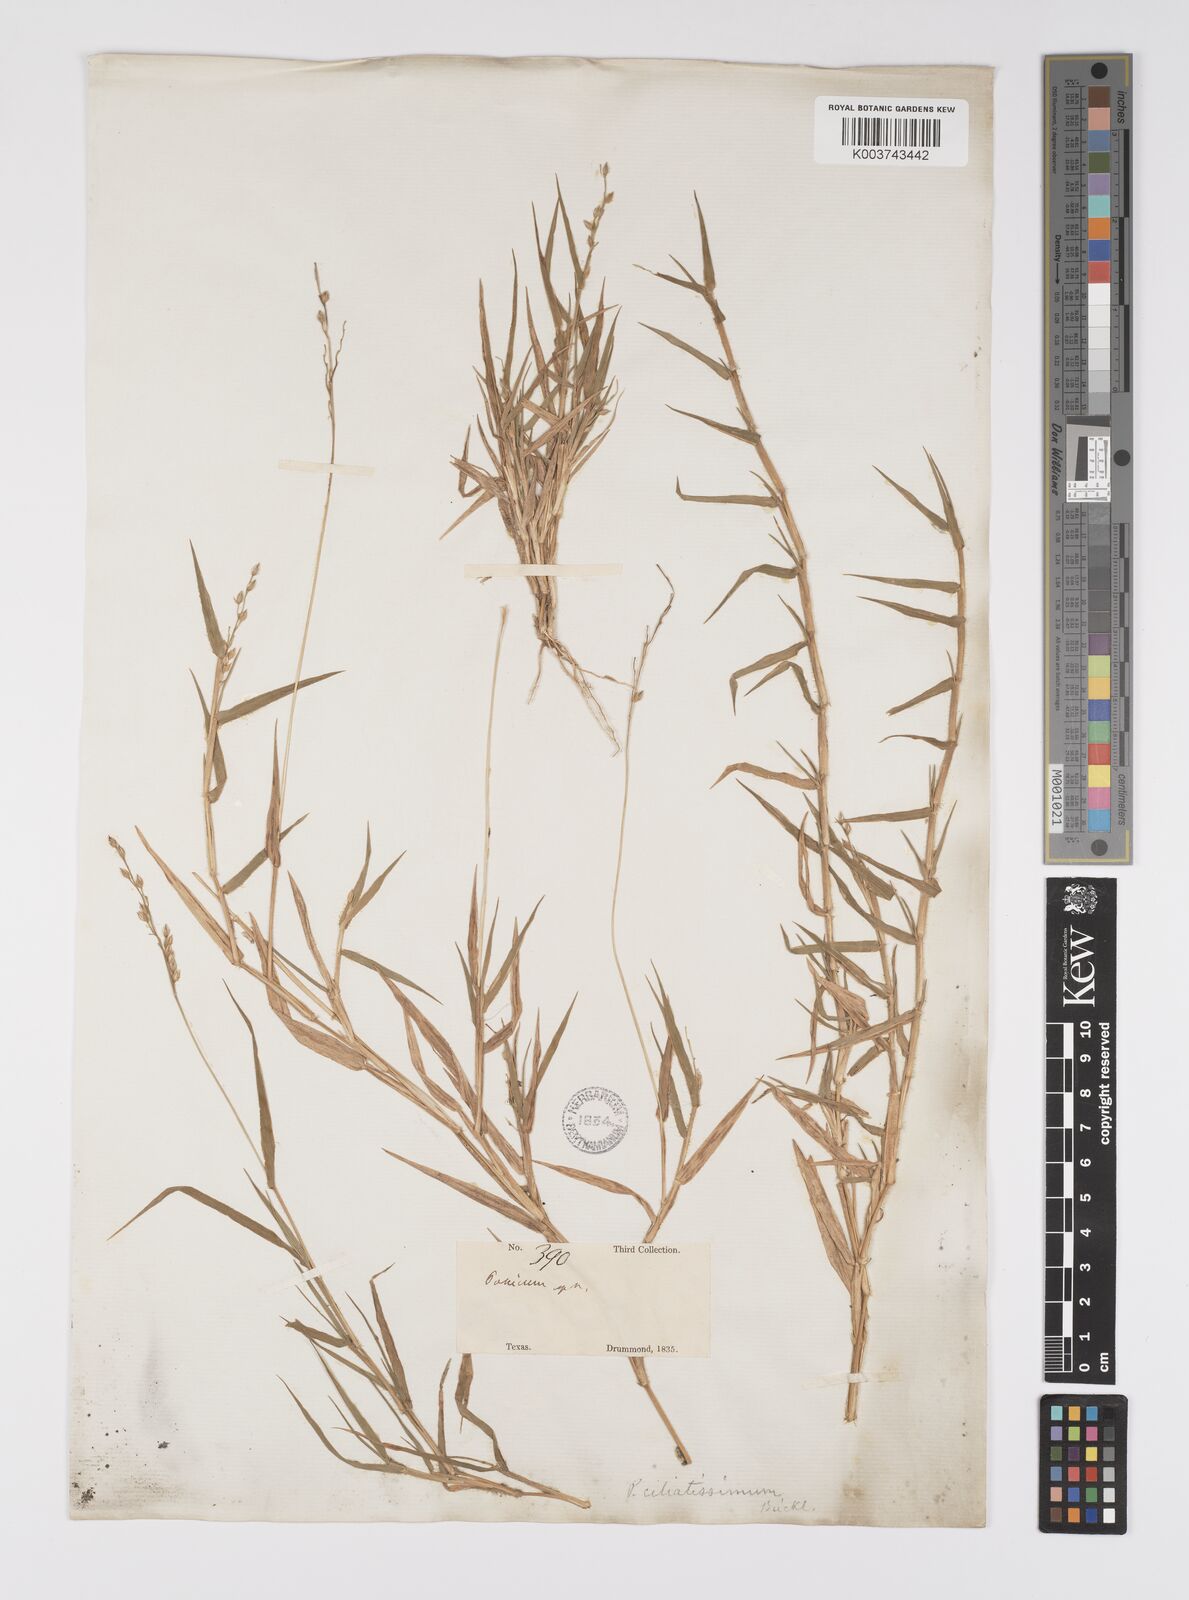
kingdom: Plantae
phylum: Tracheophyta
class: Liliopsida
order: Poales
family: Poaceae
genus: Urochloa
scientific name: Urochloa ciliatissima
